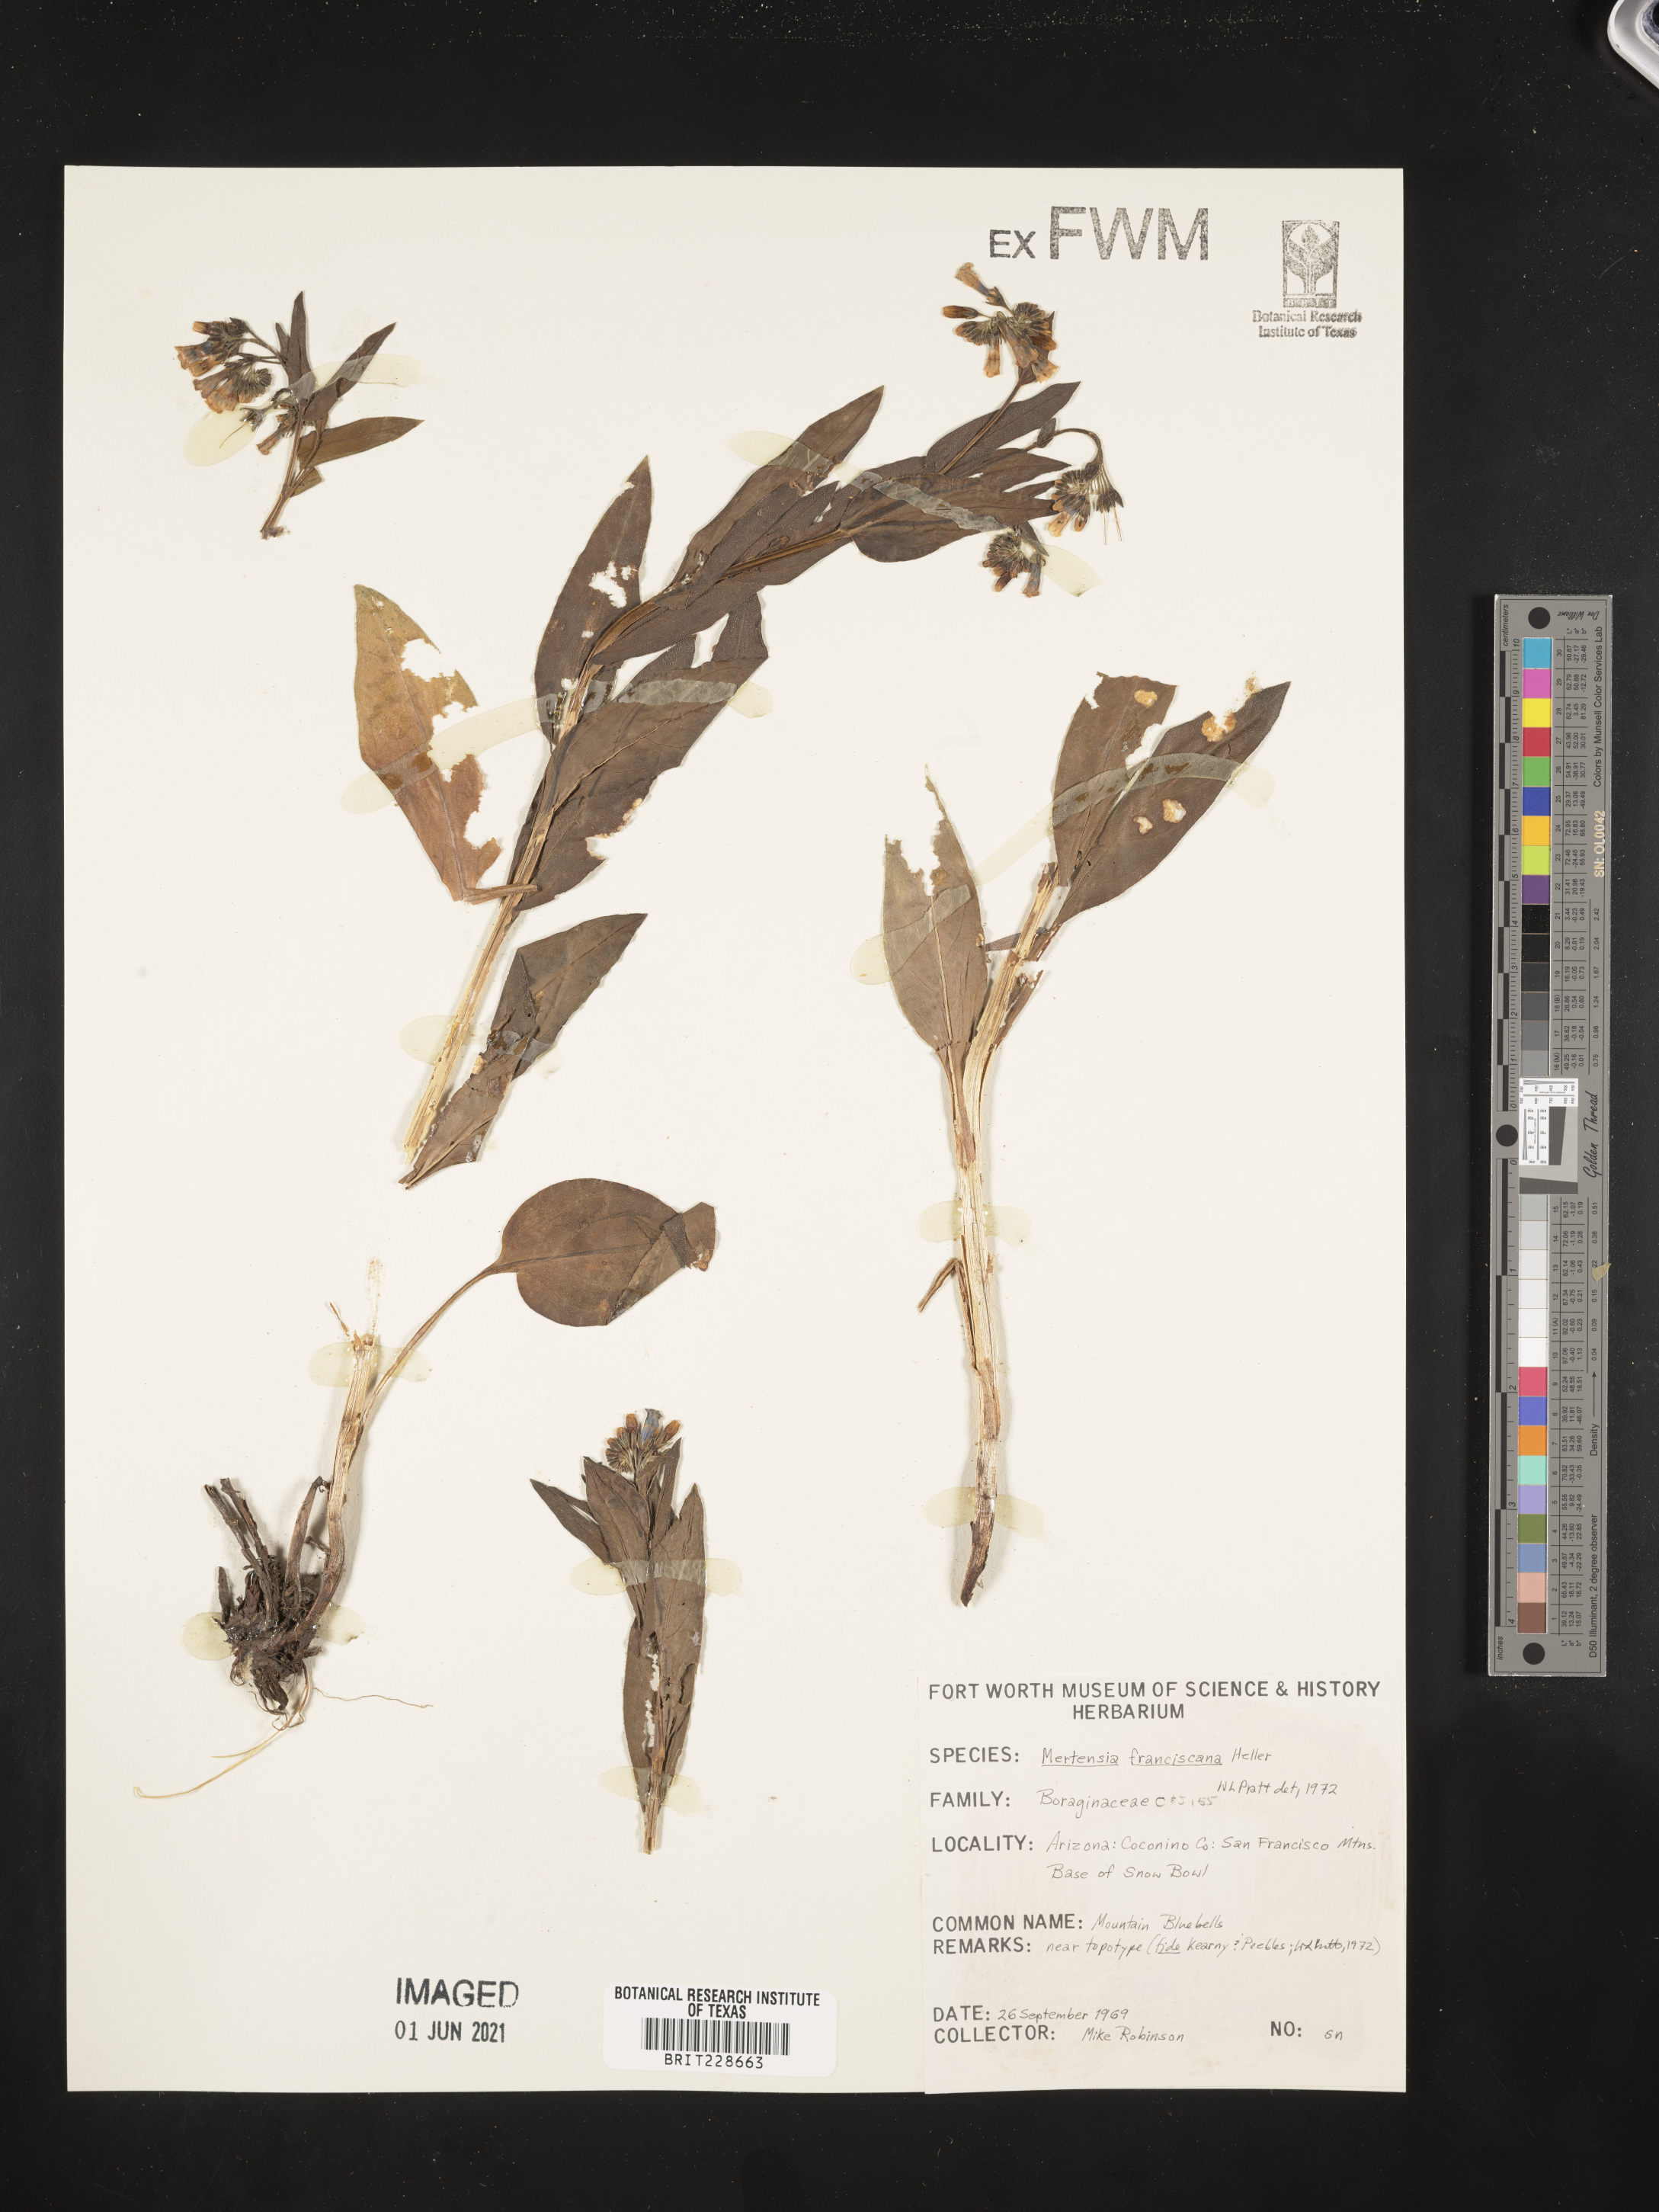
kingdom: Plantae
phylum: Tracheophyta
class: Magnoliopsida
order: Boraginales
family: Boraginaceae
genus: Mertensia
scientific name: Mertensia
